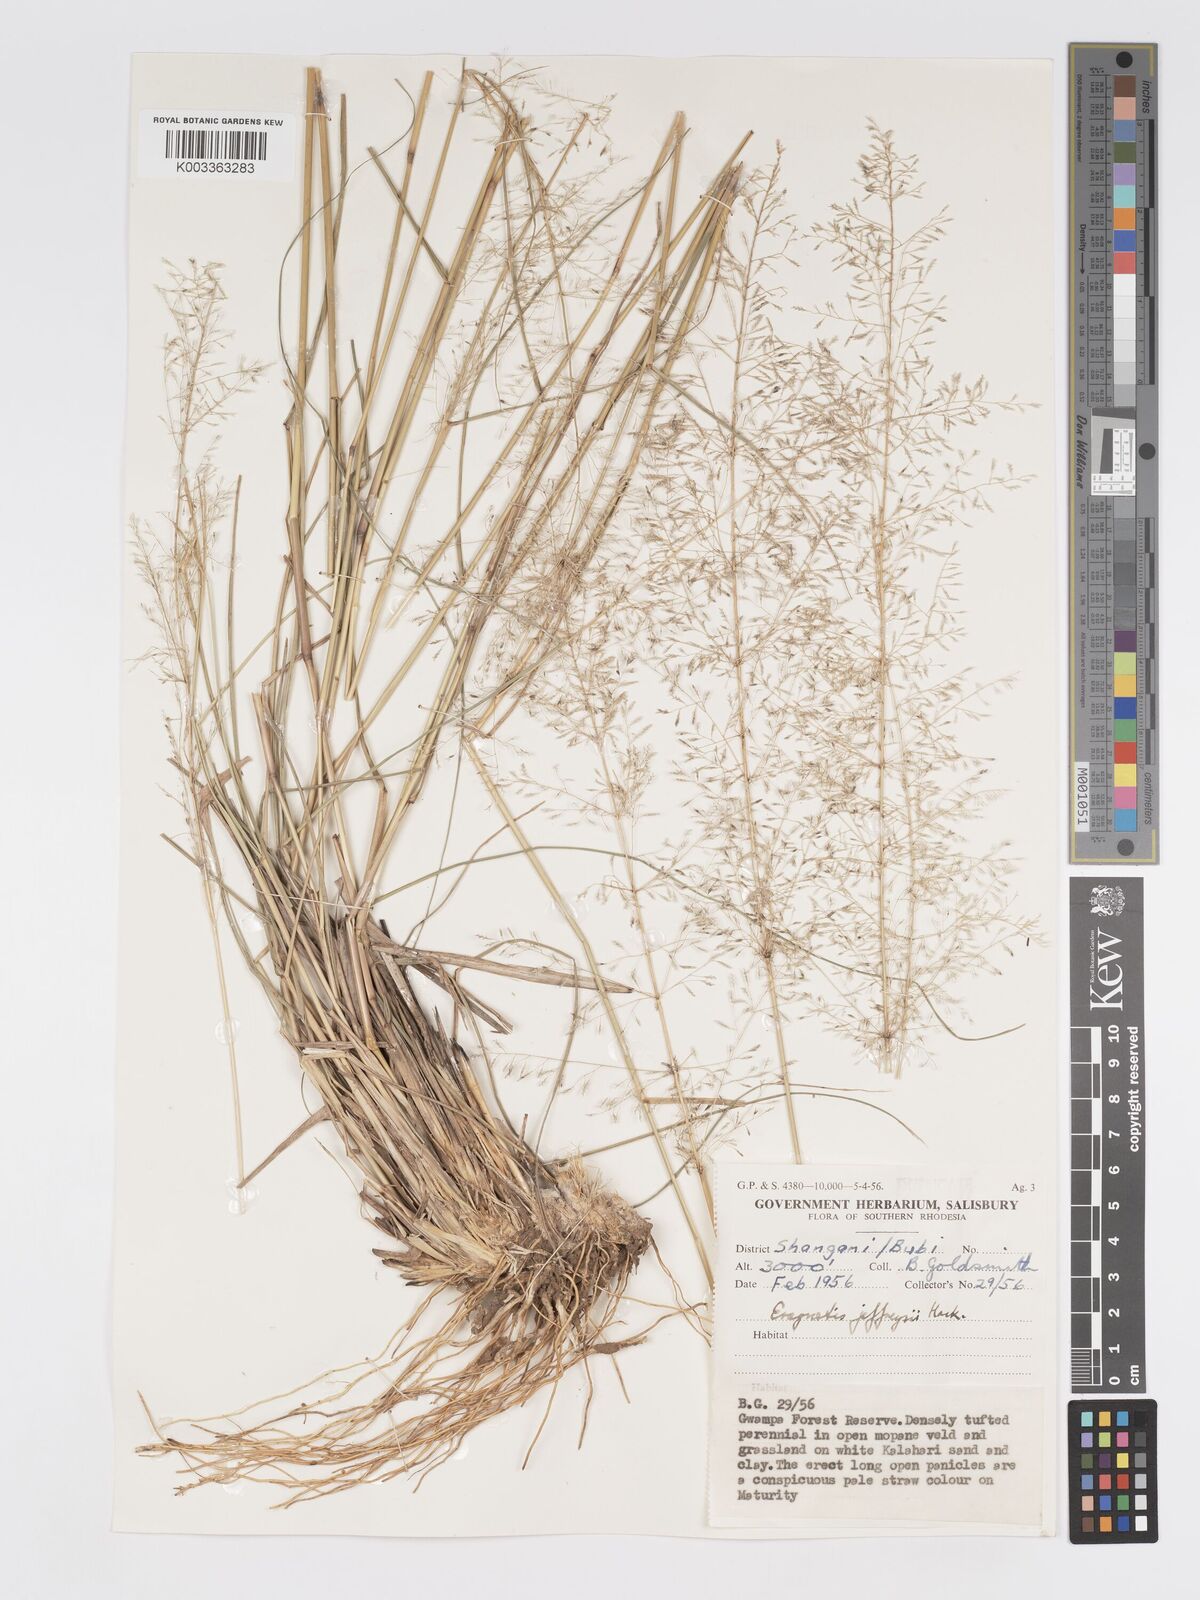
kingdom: Plantae
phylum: Tracheophyta
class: Liliopsida
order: Poales
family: Poaceae
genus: Eragrostis
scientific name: Eragrostis curvula
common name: African love-grass
